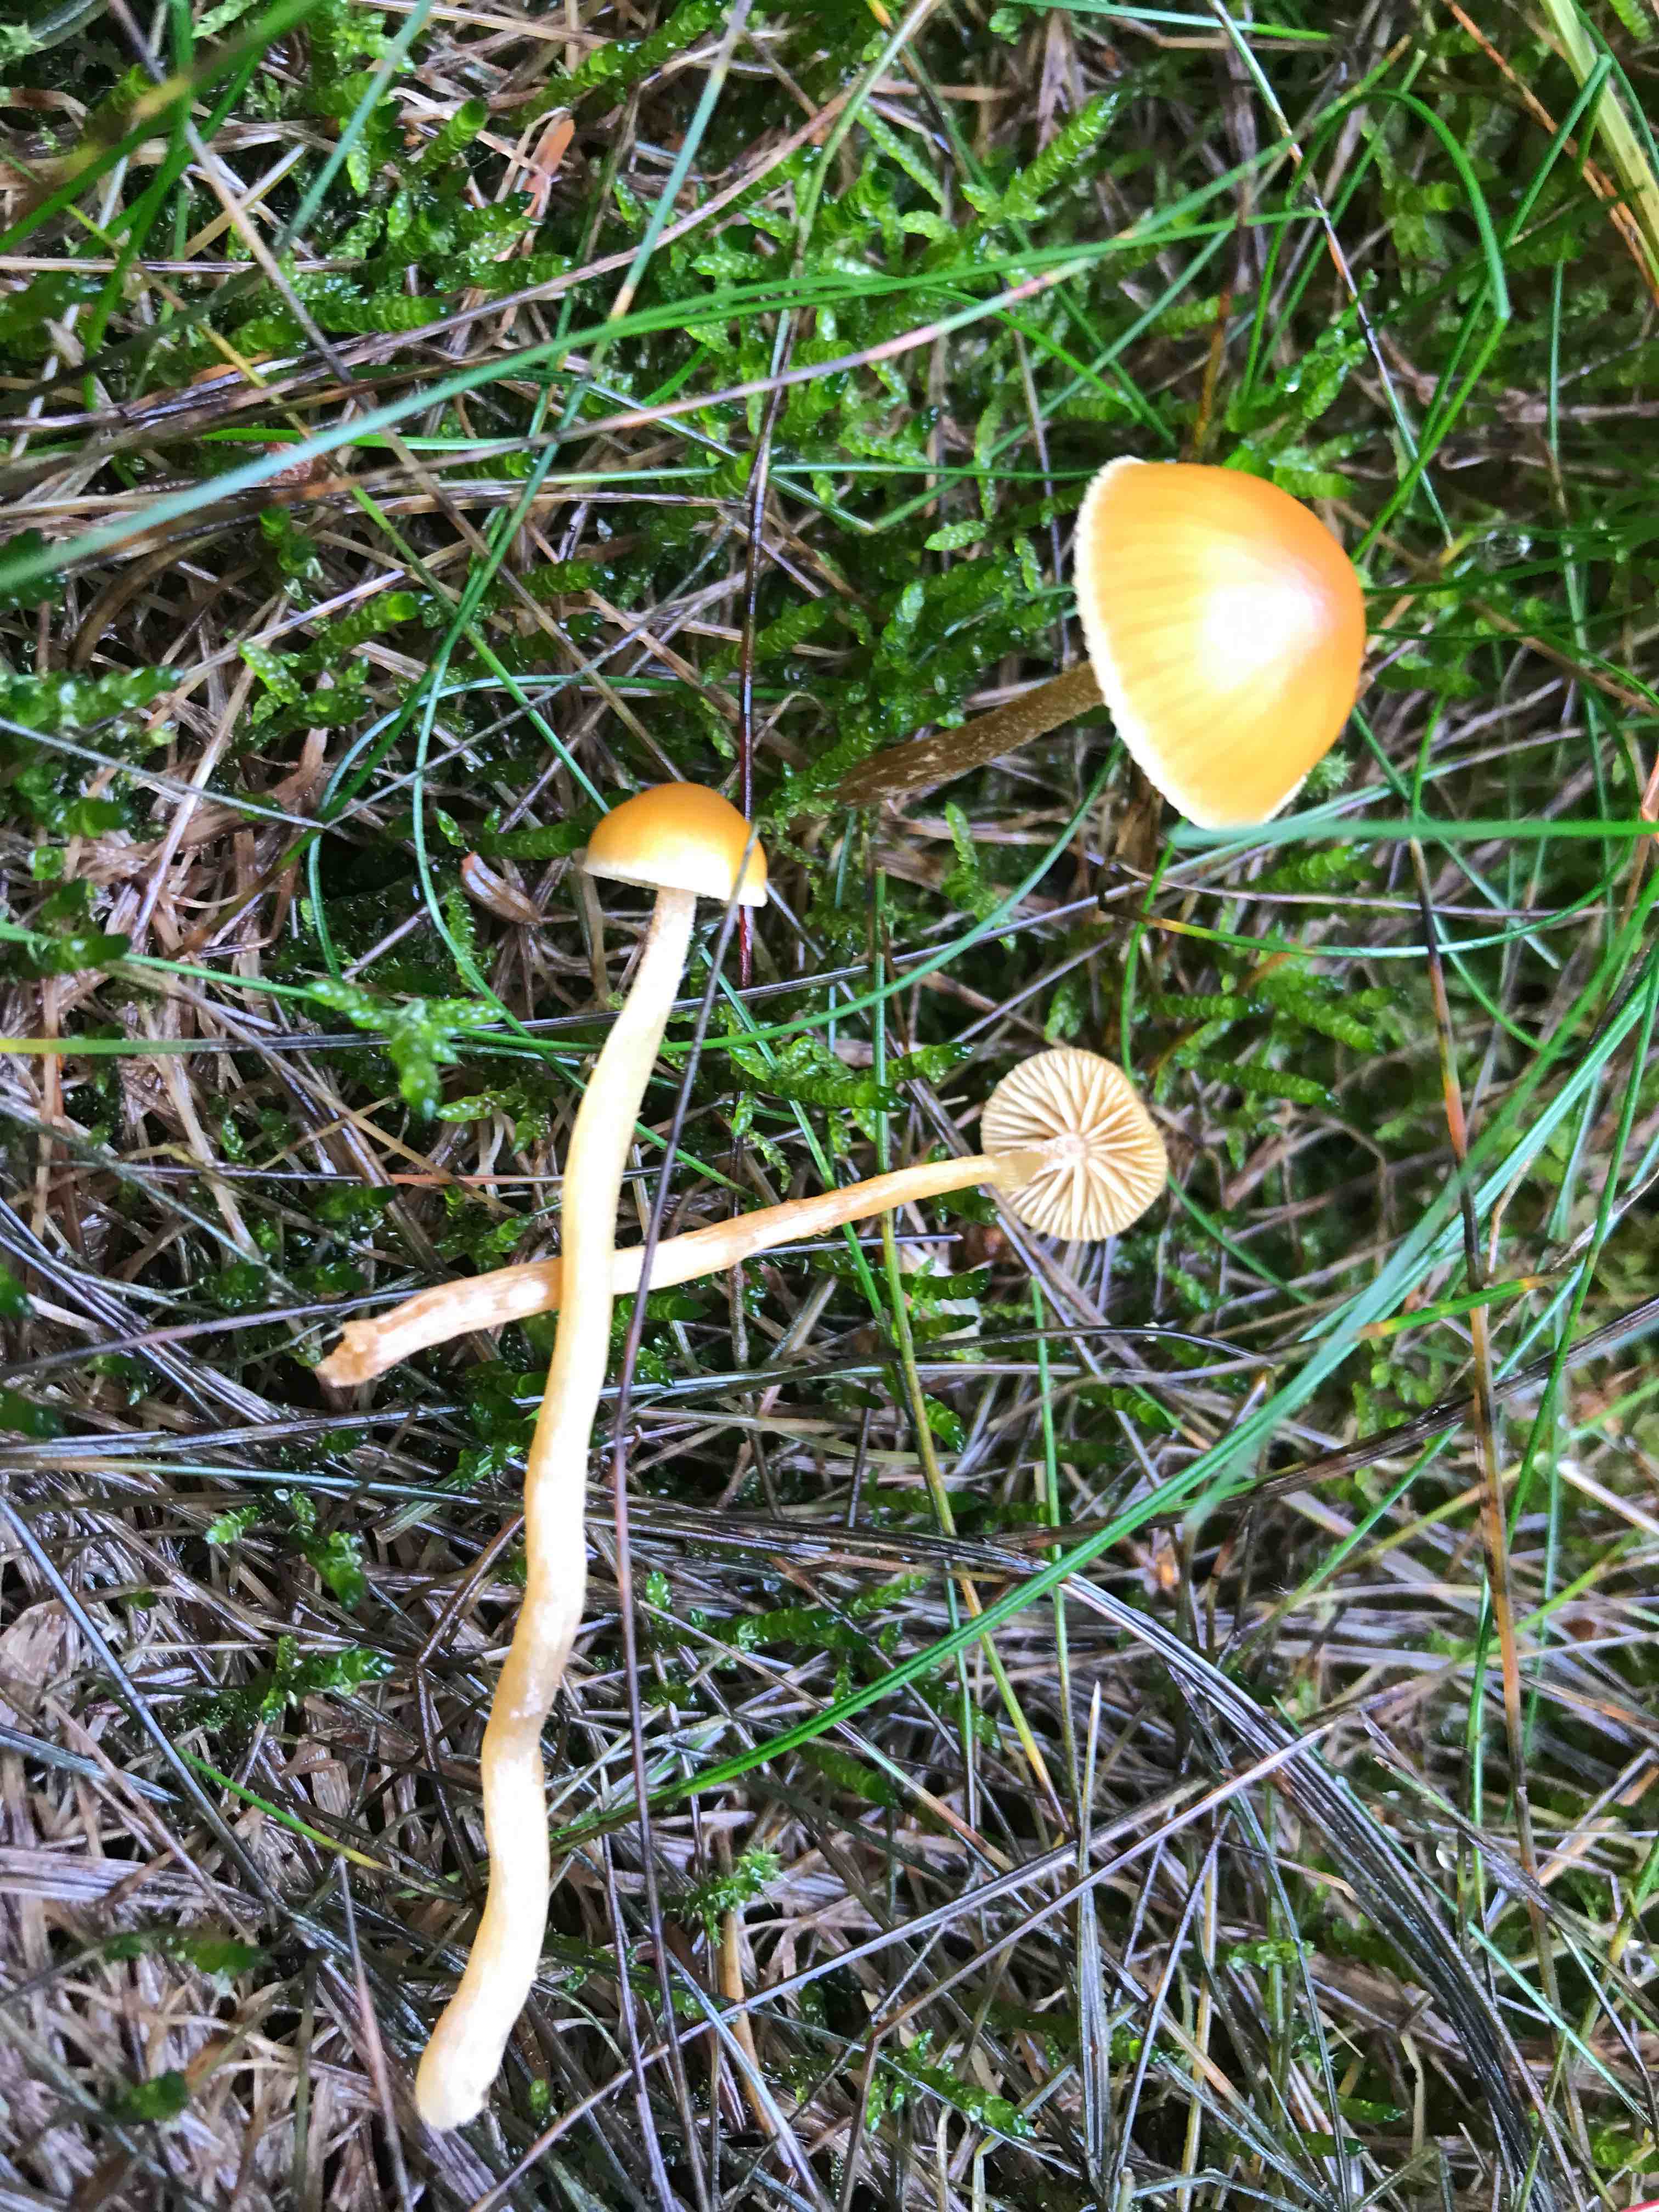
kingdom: Fungi
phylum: Basidiomycota
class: Agaricomycetes
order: Agaricales
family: Hymenogastraceae
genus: Galerina
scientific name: Galerina pumila
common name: honninggul hjelmhat
